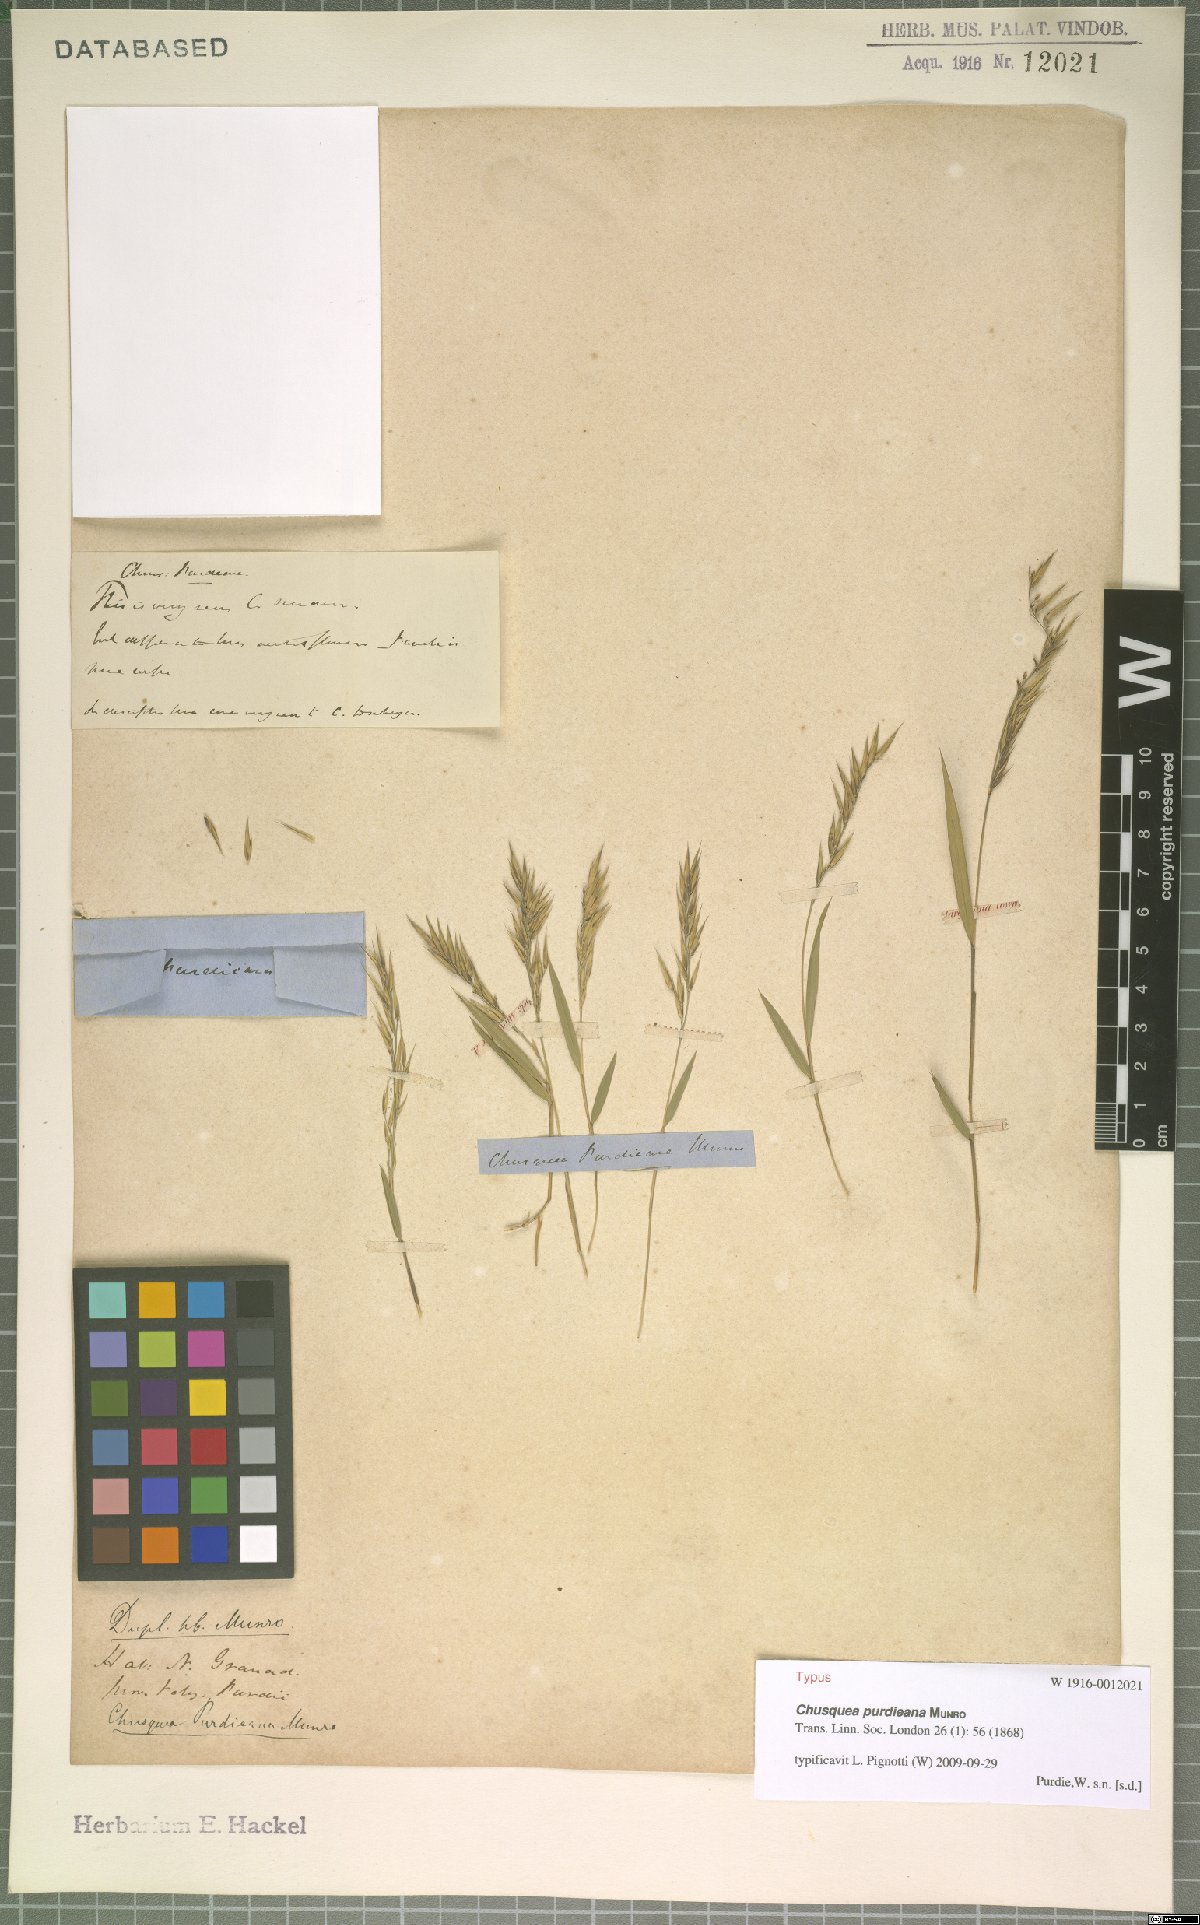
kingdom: Plantae
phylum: Tracheophyta
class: Liliopsida
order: Poales
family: Poaceae
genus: Chusquea
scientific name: Chusquea purdieana
